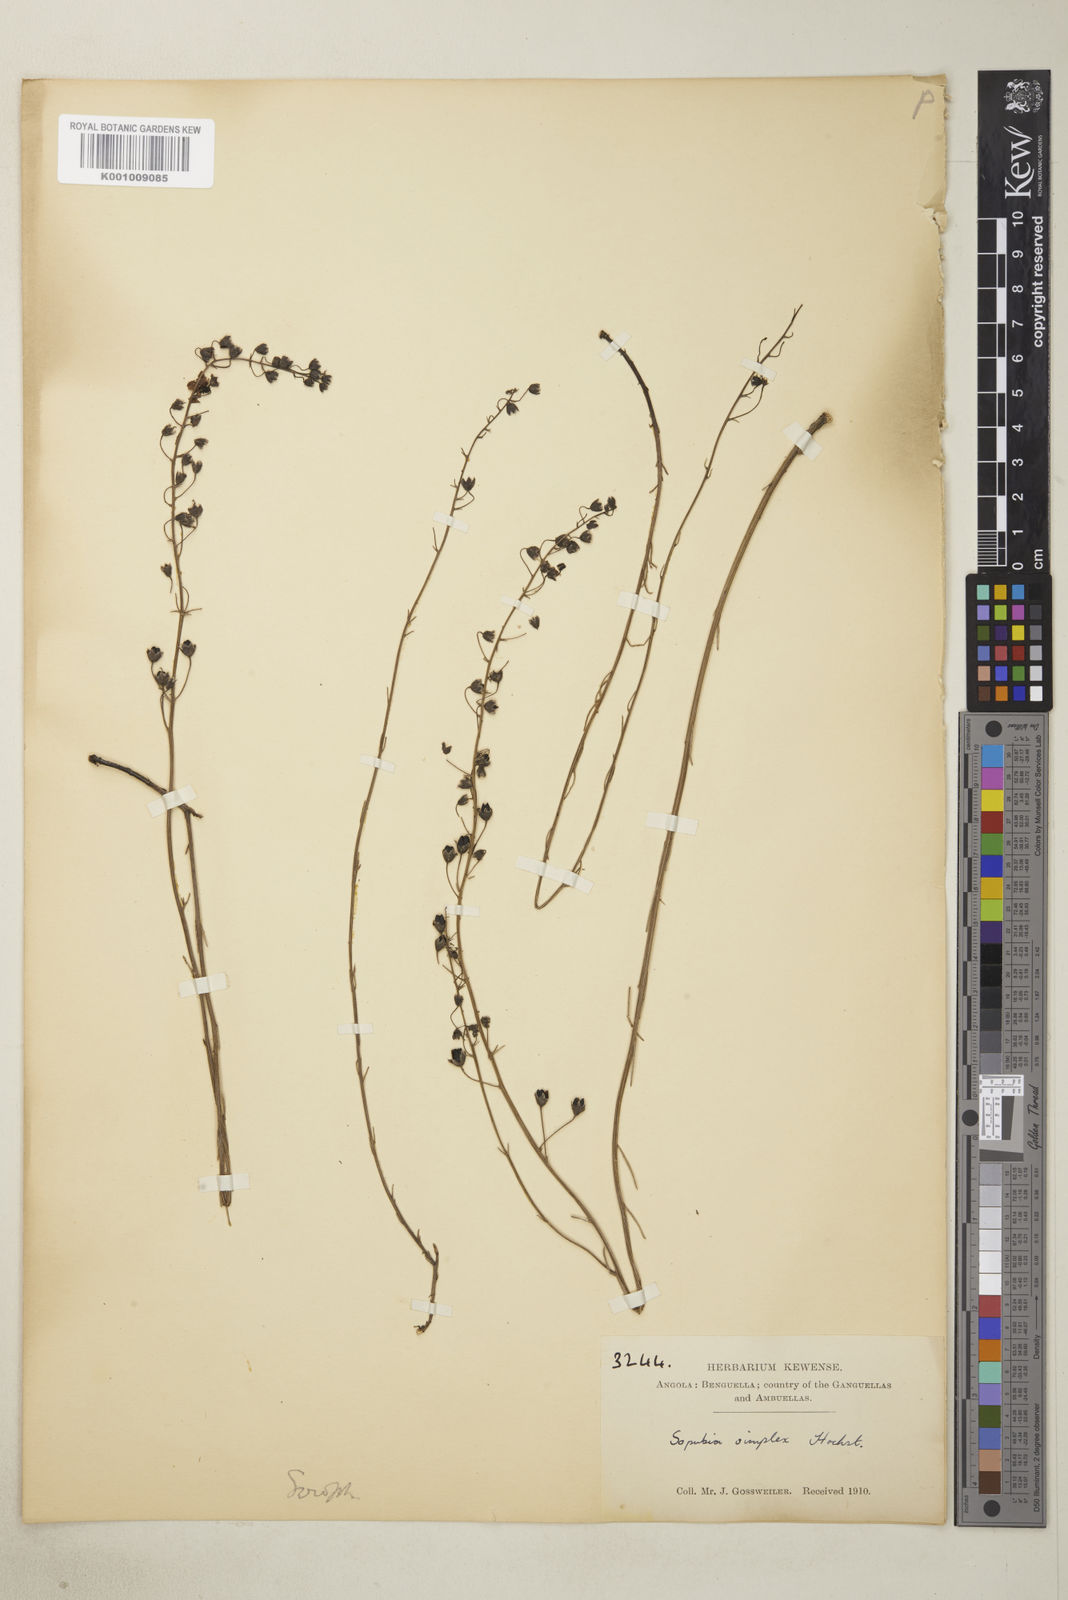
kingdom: Plantae
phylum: Tracheophyta
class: Magnoliopsida
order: Lamiales
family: Orobanchaceae
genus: Sopubia
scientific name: Sopubia simplex
